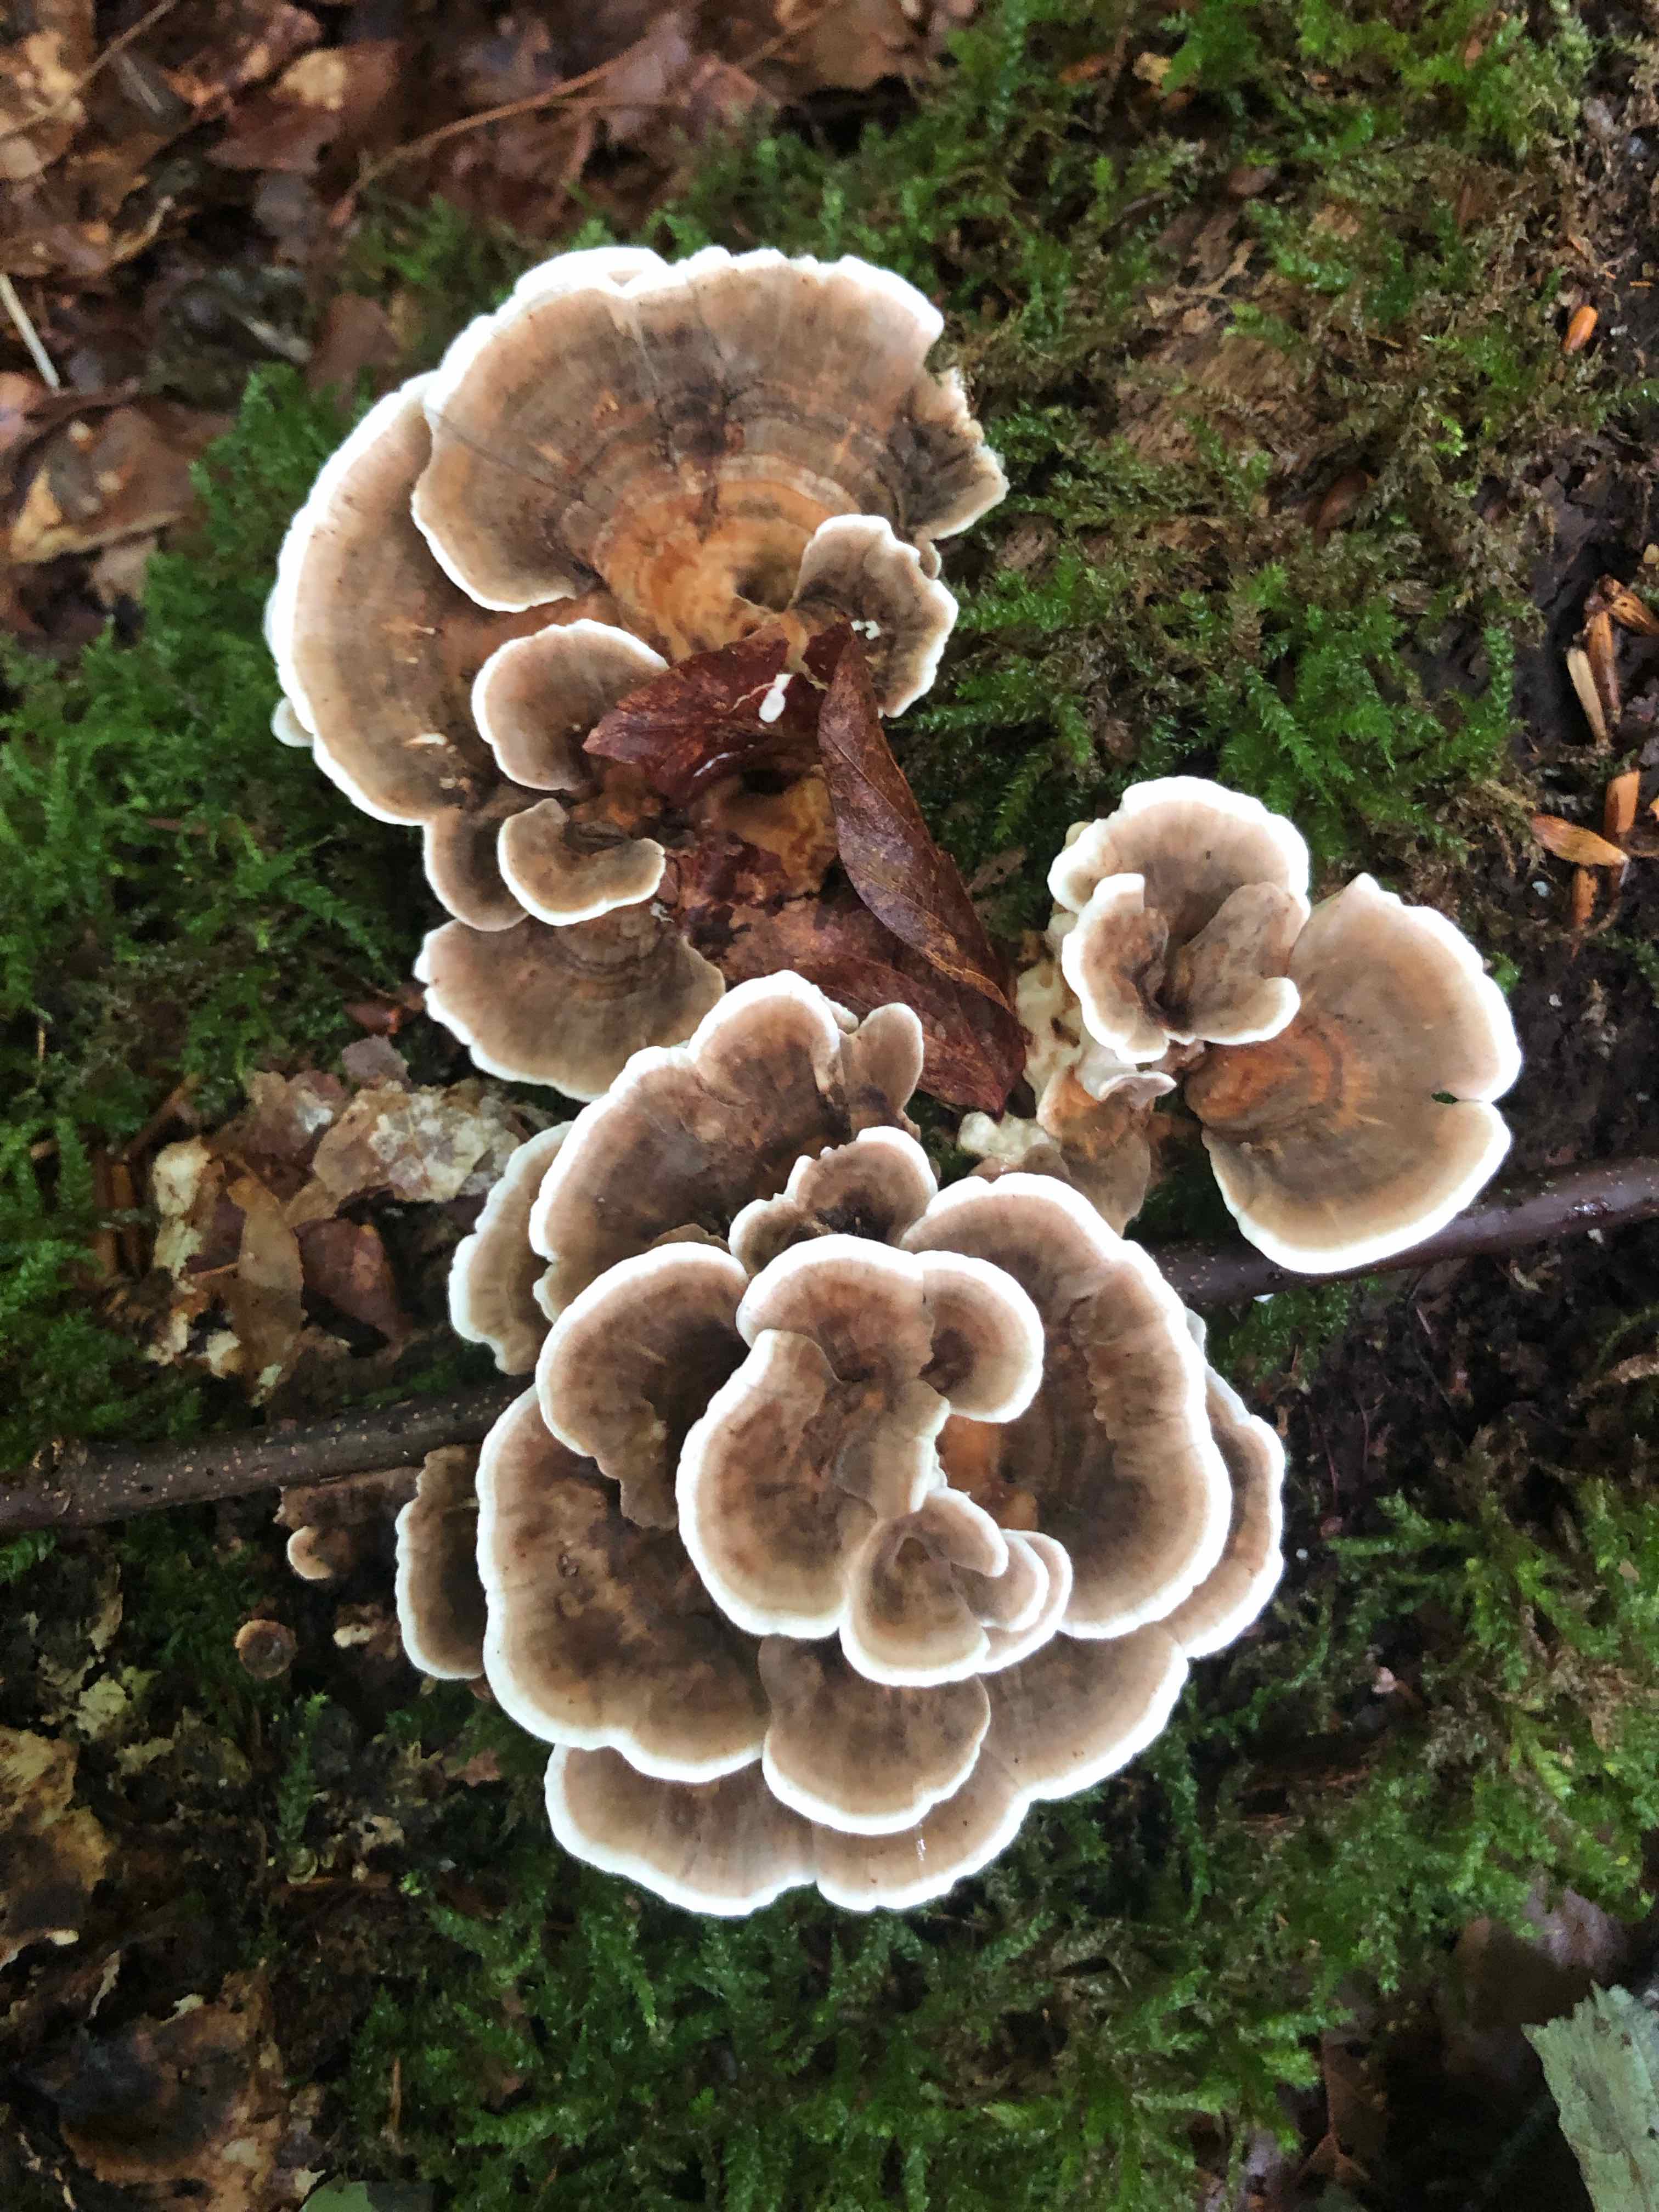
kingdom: Fungi
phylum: Basidiomycota
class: Agaricomycetes
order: Polyporales
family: Polyporaceae
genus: Trametes
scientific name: Trametes versicolor
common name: broget læderporesvamp
